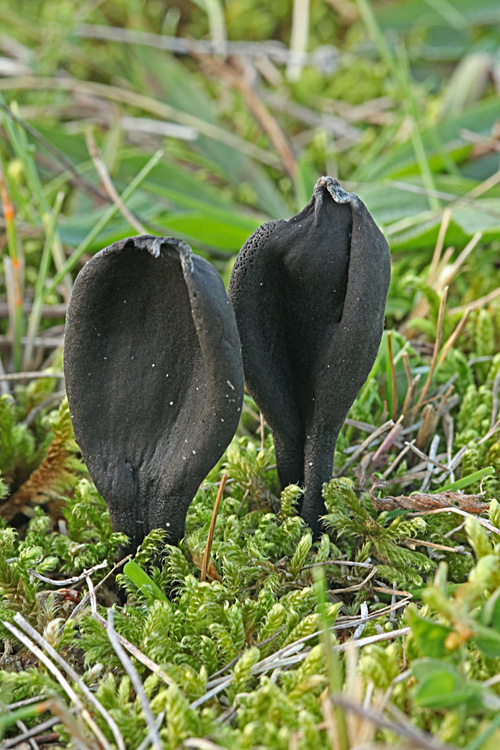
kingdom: Fungi
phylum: Ascomycota
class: Geoglossomycetes
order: Geoglossales
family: Geoglossaceae
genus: Geoglossum
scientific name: Geoglossum cookeianum
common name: bred jordtunge
